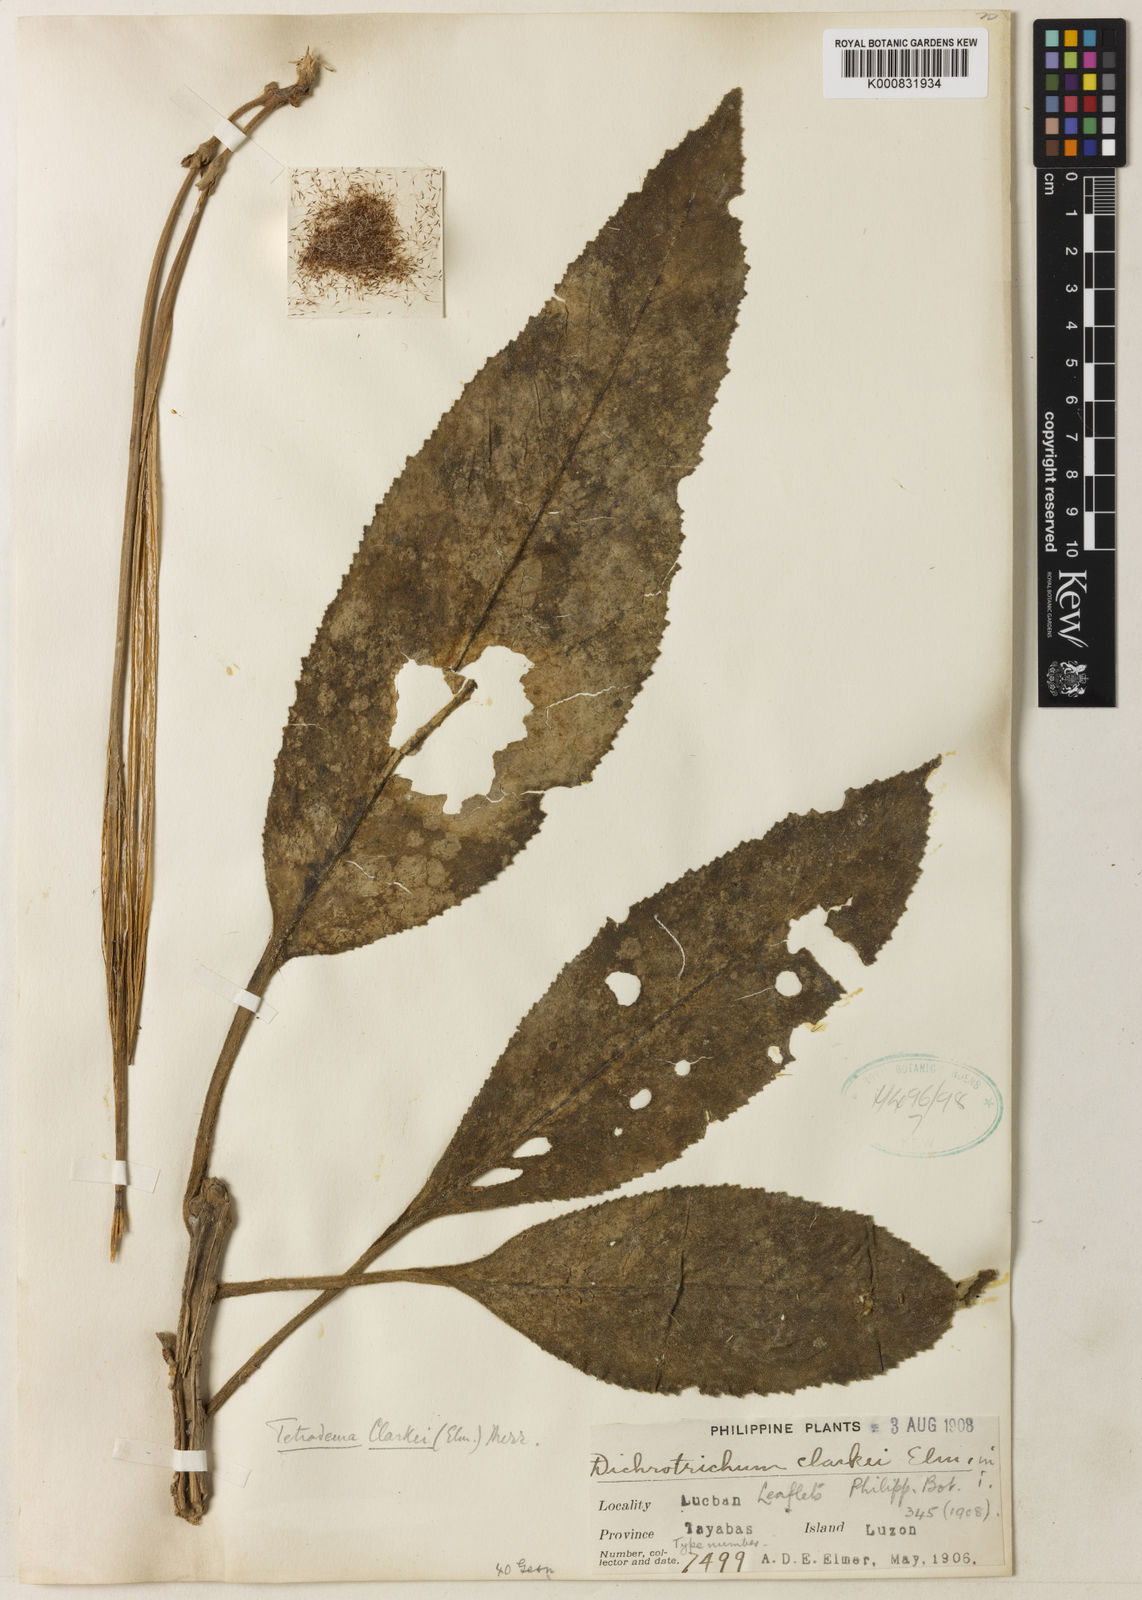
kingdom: Plantae
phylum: Tracheophyta
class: Magnoliopsida
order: Lamiales
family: Gesneriaceae
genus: Agalmyla
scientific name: Agalmyla clarkei
